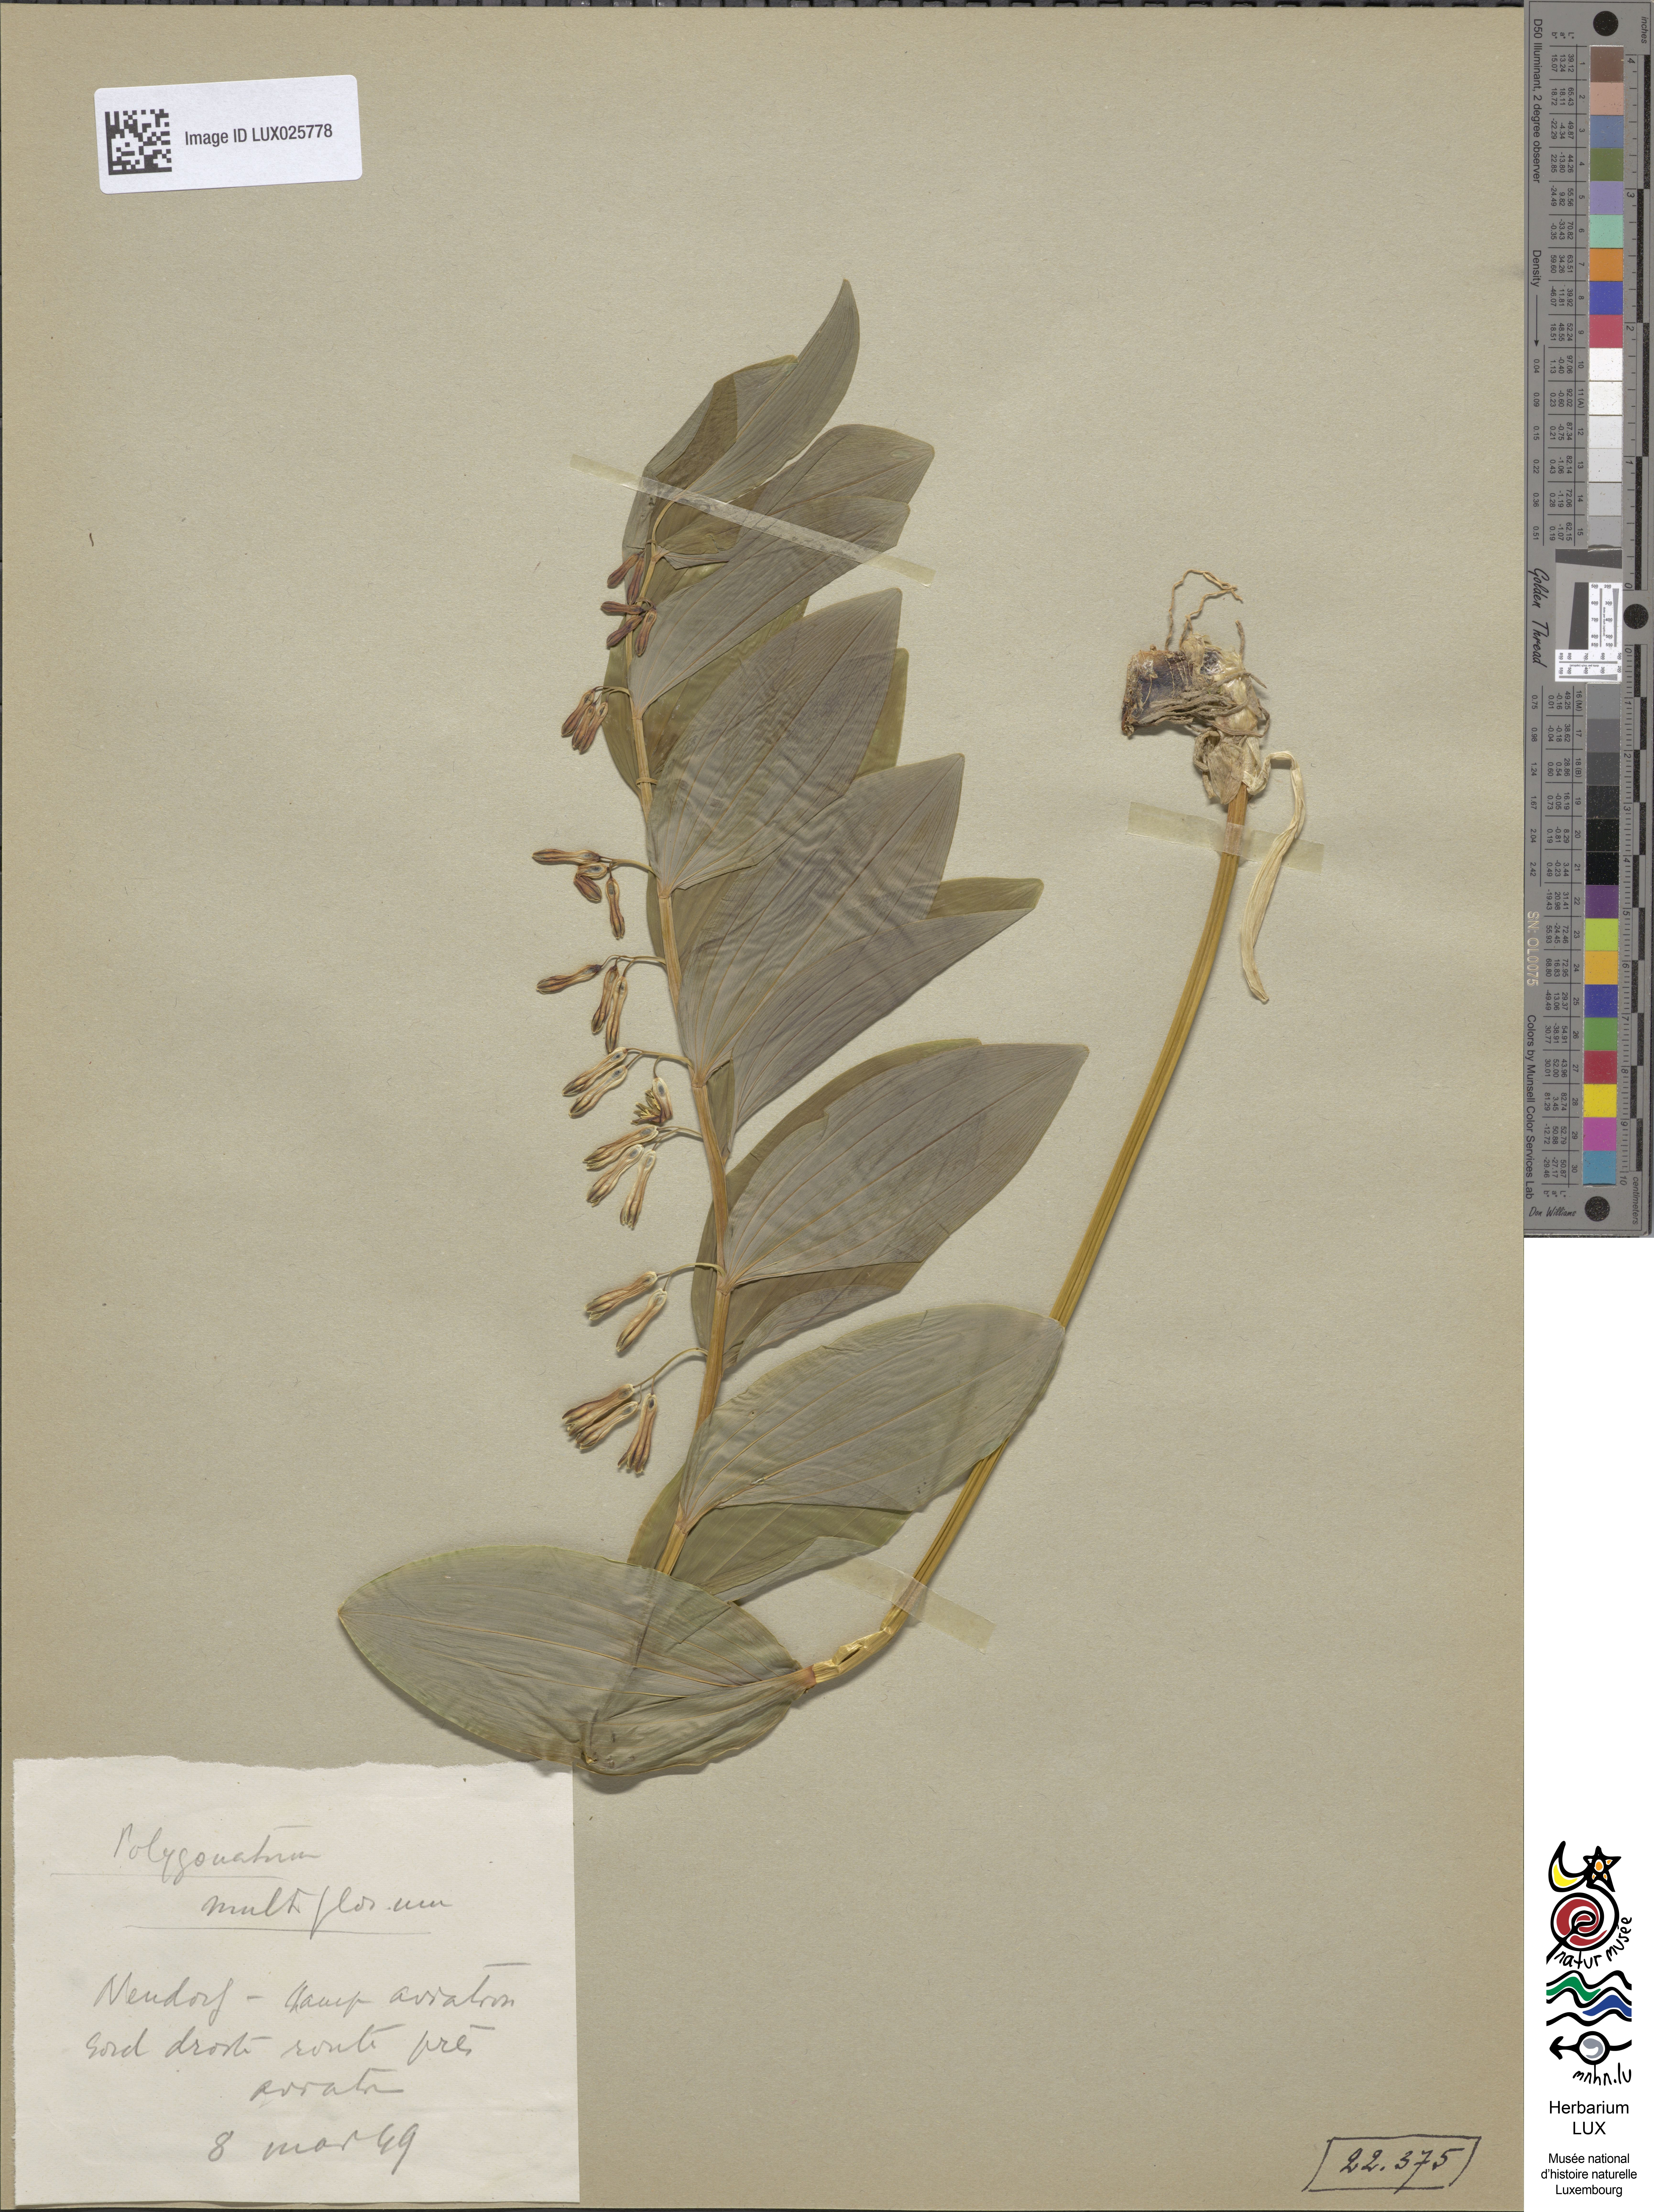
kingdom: Plantae
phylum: Tracheophyta
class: Liliopsida
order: Asparagales
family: Asparagaceae
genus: Polygonatum
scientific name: Polygonatum multiflorum
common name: Solomon's-seal
